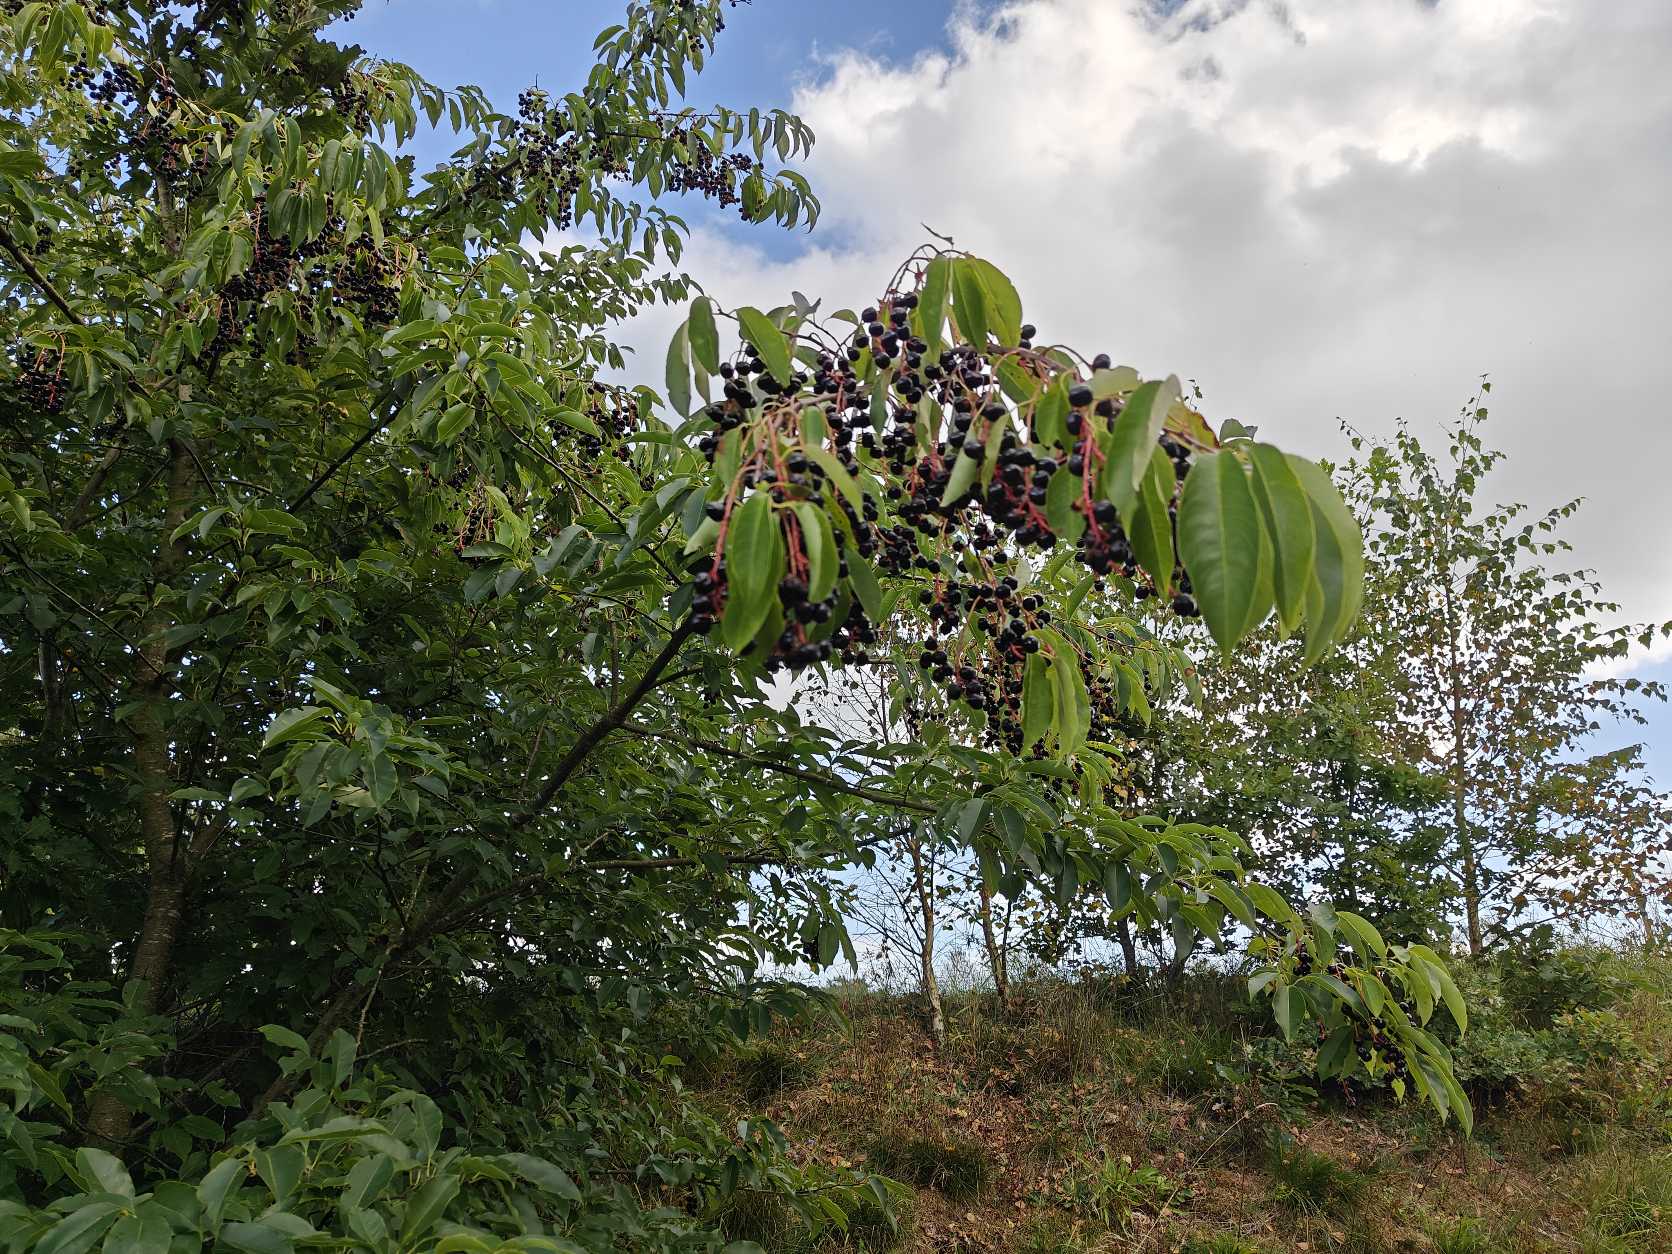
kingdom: Plantae
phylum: Tracheophyta
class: Magnoliopsida
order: Rosales
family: Rosaceae
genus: Prunus
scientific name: Prunus serotina
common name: Glansbladet hæg
